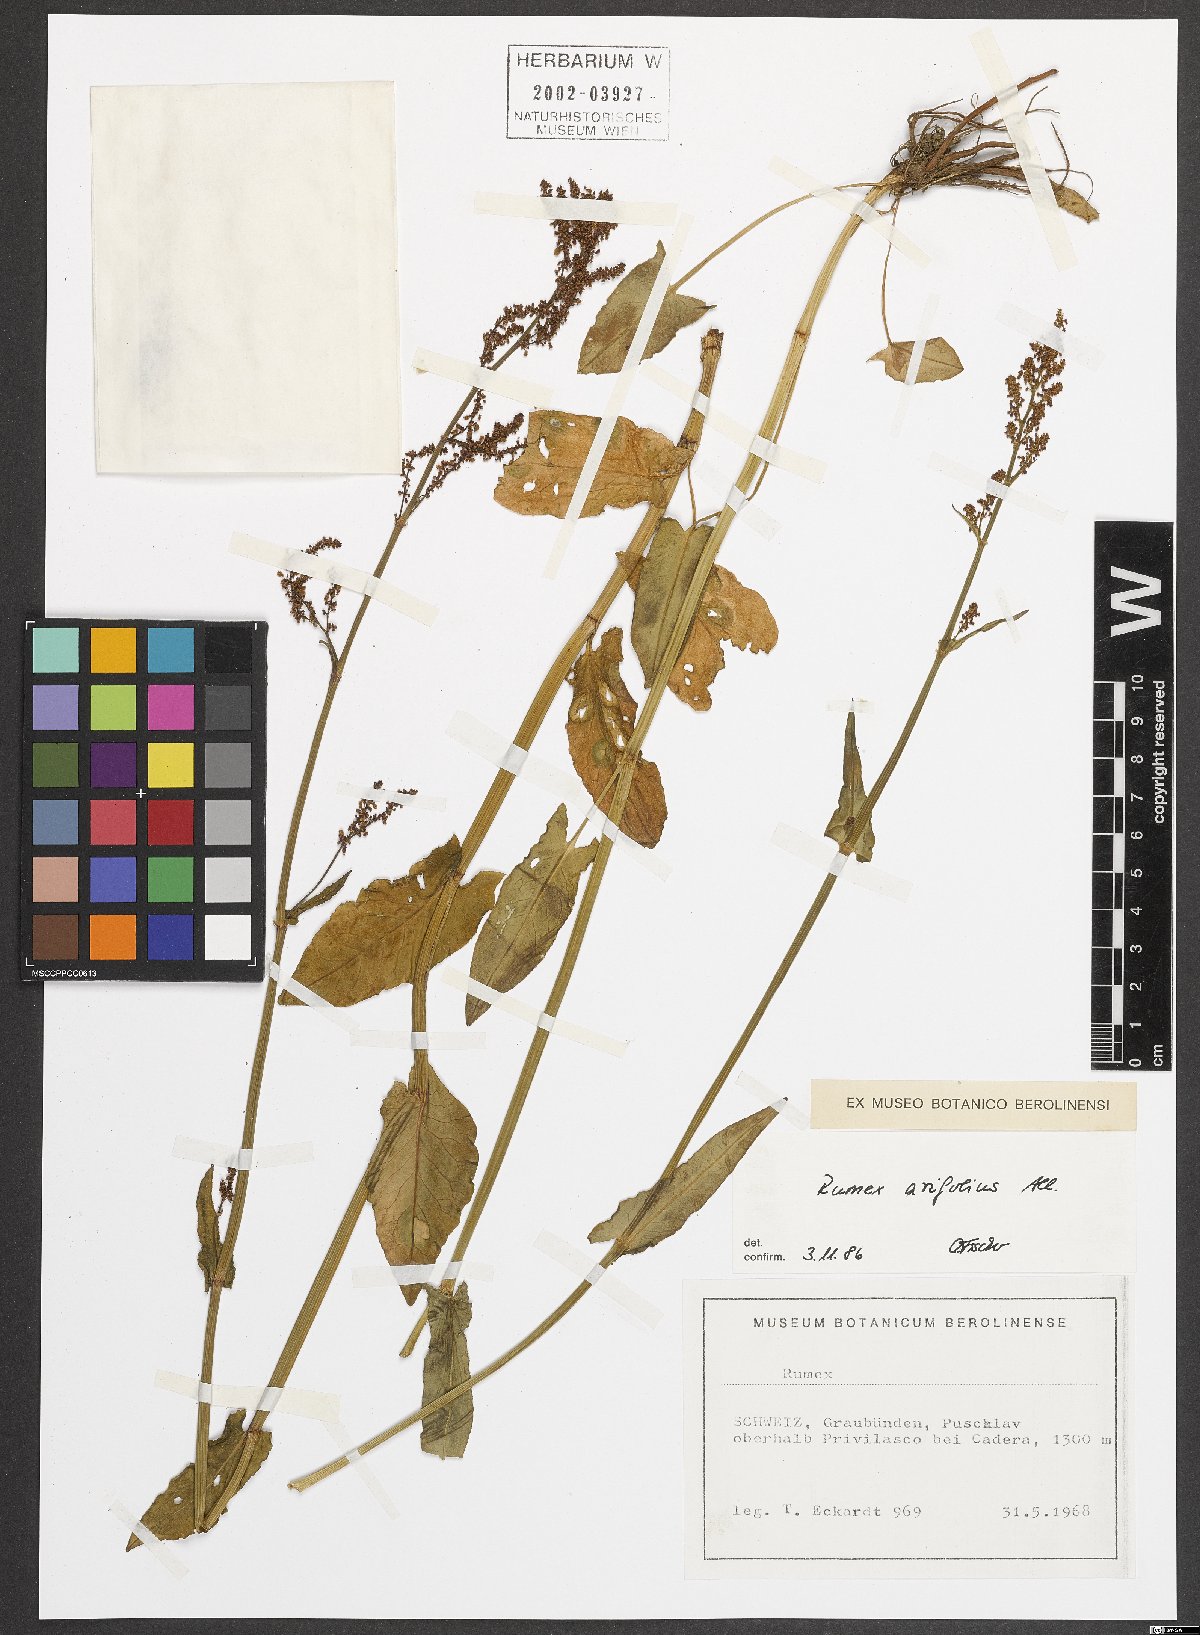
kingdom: Plantae
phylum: Tracheophyta
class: Magnoliopsida
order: Caryophyllales
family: Polygonaceae
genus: Rumex
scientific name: Rumex arifolius
